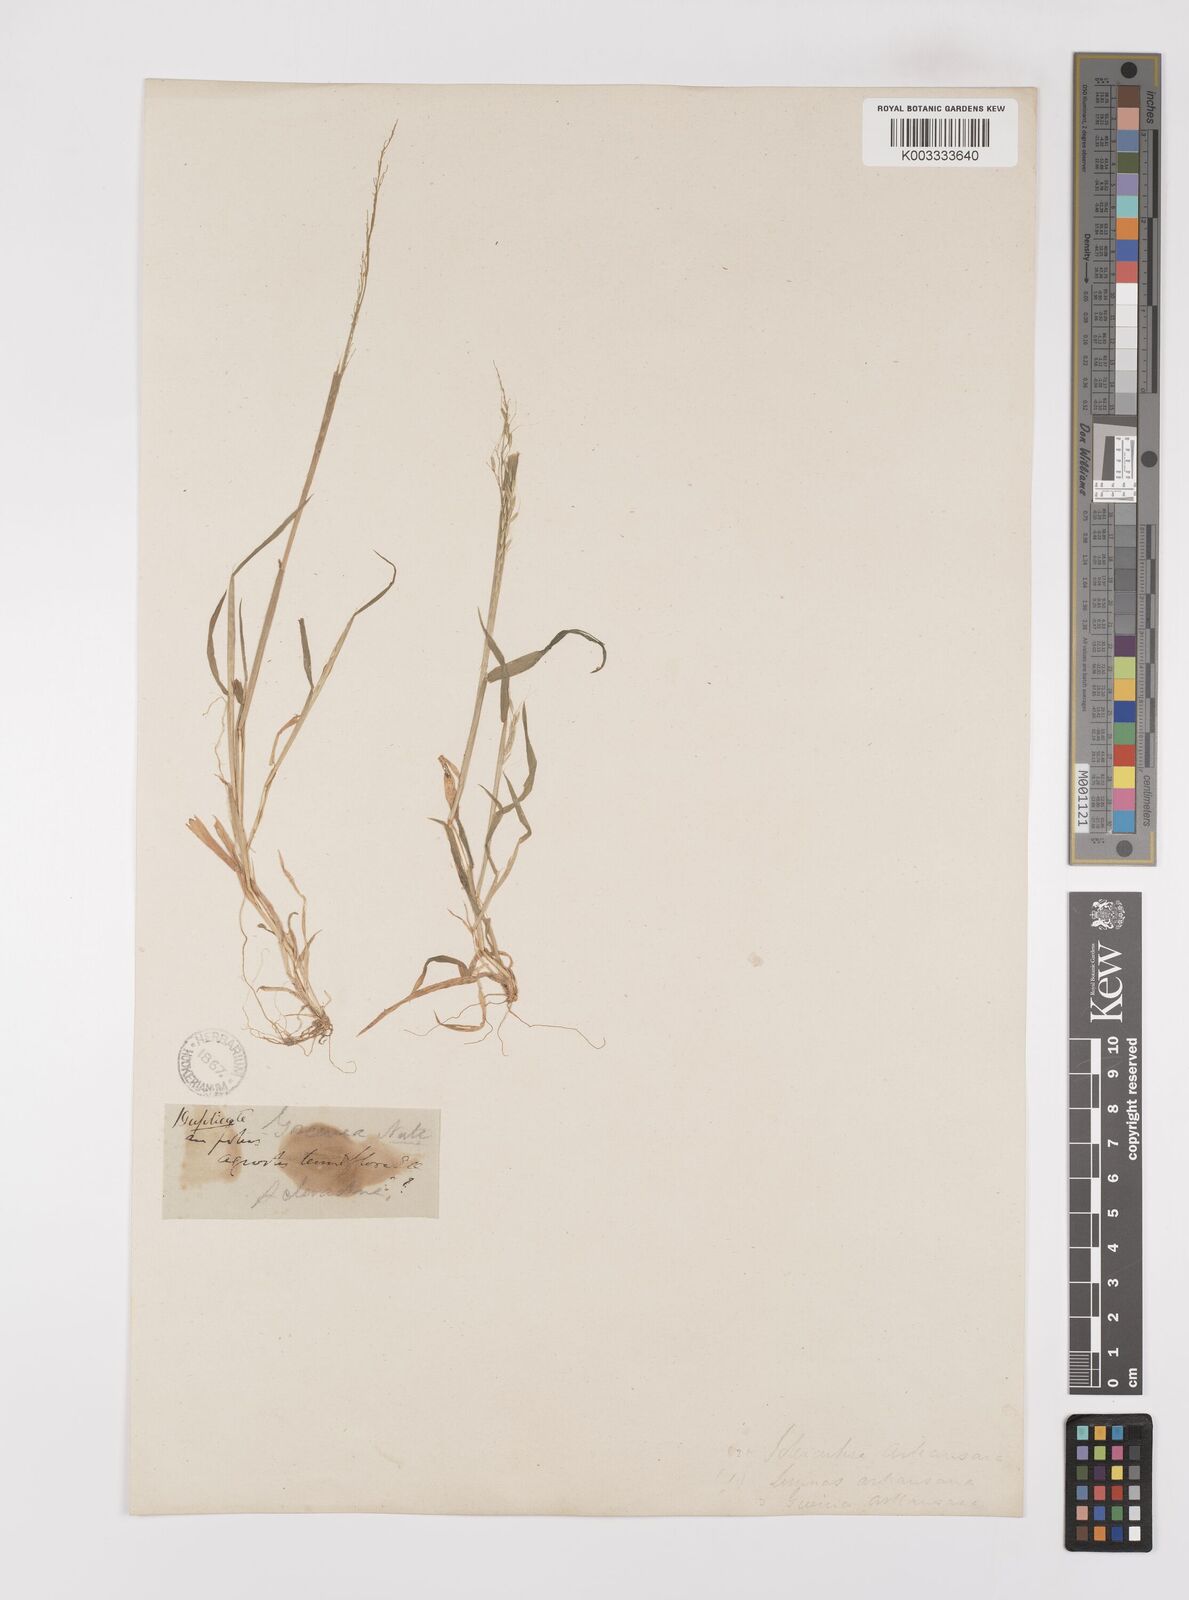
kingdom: Plantae
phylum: Tracheophyta
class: Liliopsida
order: Poales
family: Poaceae
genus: Limnodea
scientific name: Limnodea arkansana
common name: Ozark-grass
